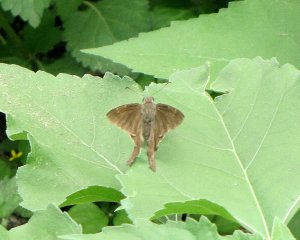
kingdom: Animalia
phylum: Arthropoda
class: Insecta
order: Lepidoptera
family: Hesperiidae
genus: Urbanus
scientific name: Urbanus procne
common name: Brown Longtail
